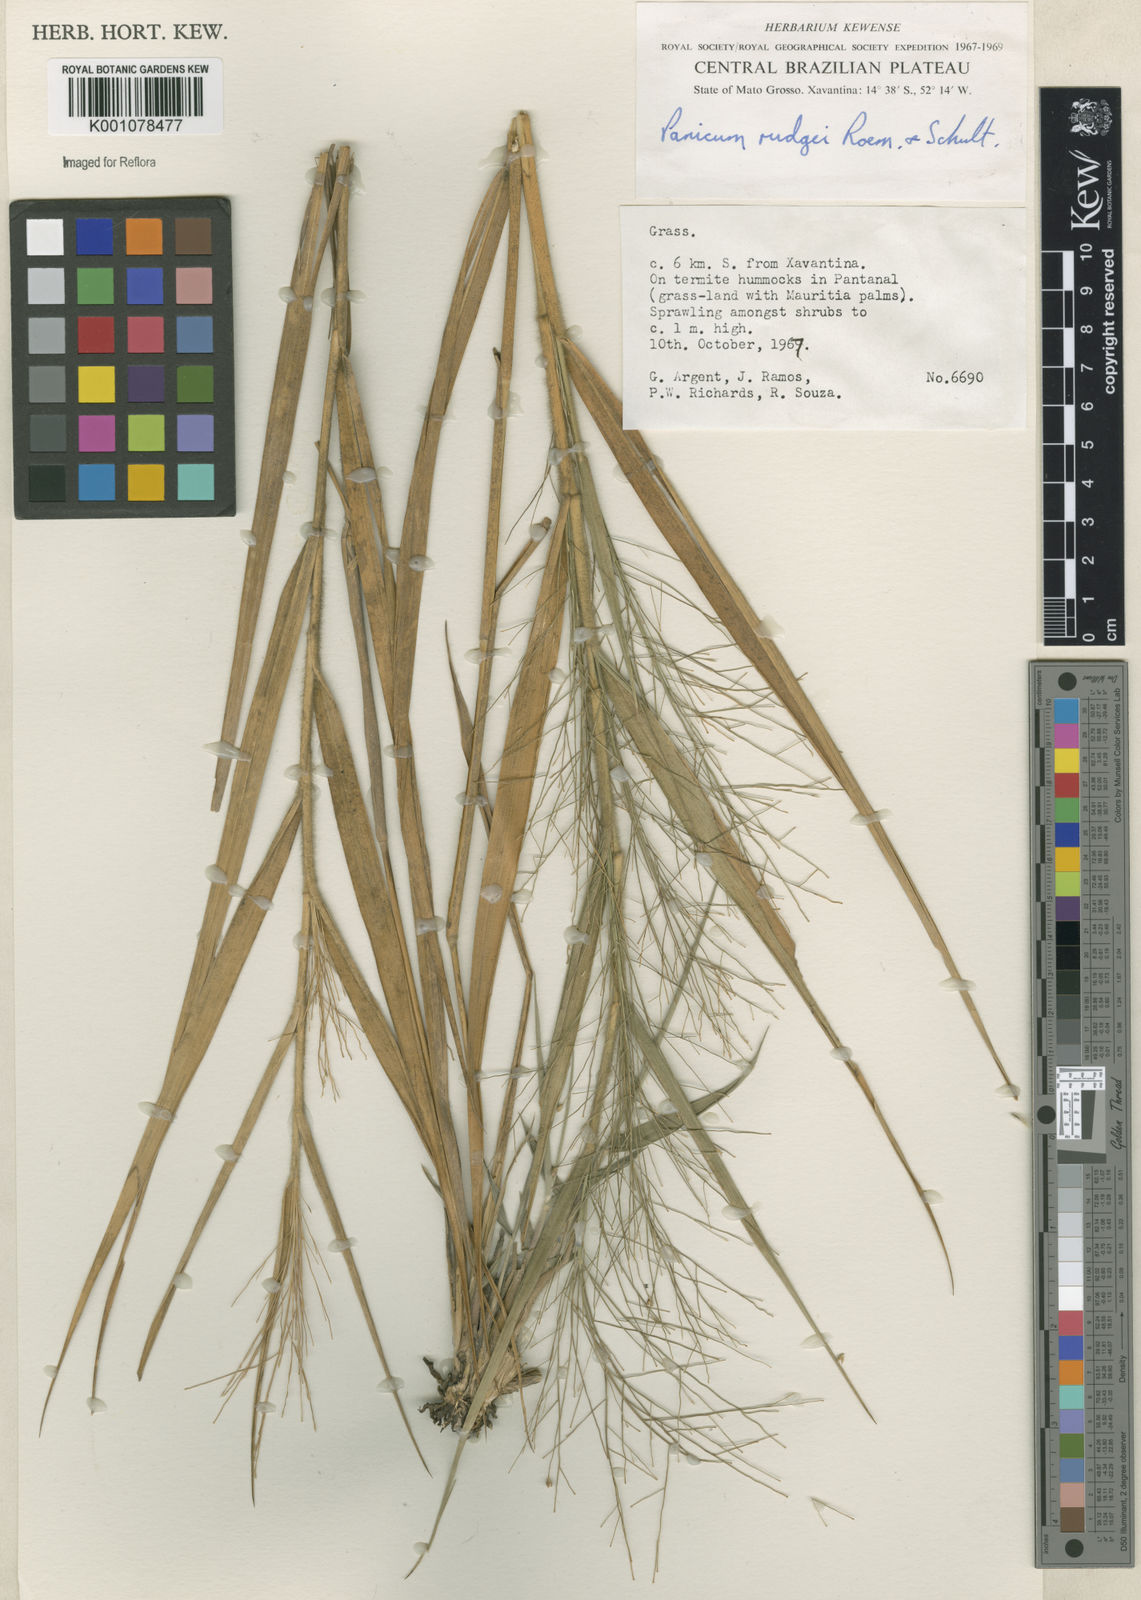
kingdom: Plantae
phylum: Tracheophyta
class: Liliopsida
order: Poales
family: Poaceae
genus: Panicum
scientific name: Panicum rudgei
